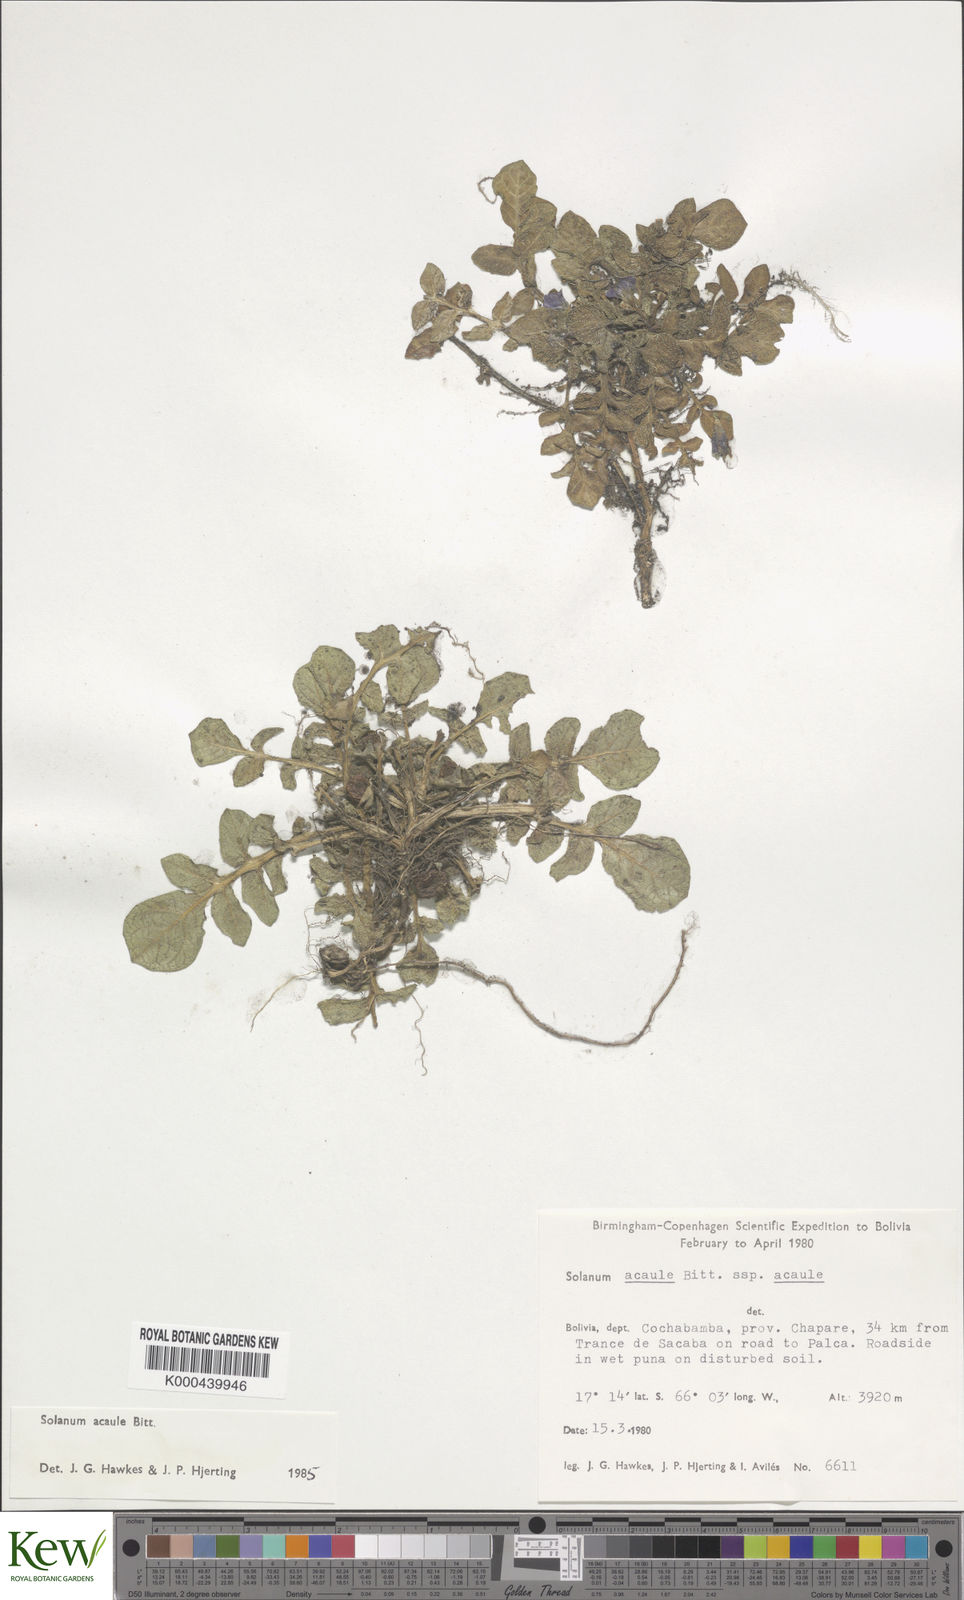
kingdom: Plantae
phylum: Tracheophyta
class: Magnoliopsida
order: Solanales
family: Solanaceae
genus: Solanum
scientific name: Solanum acaule
